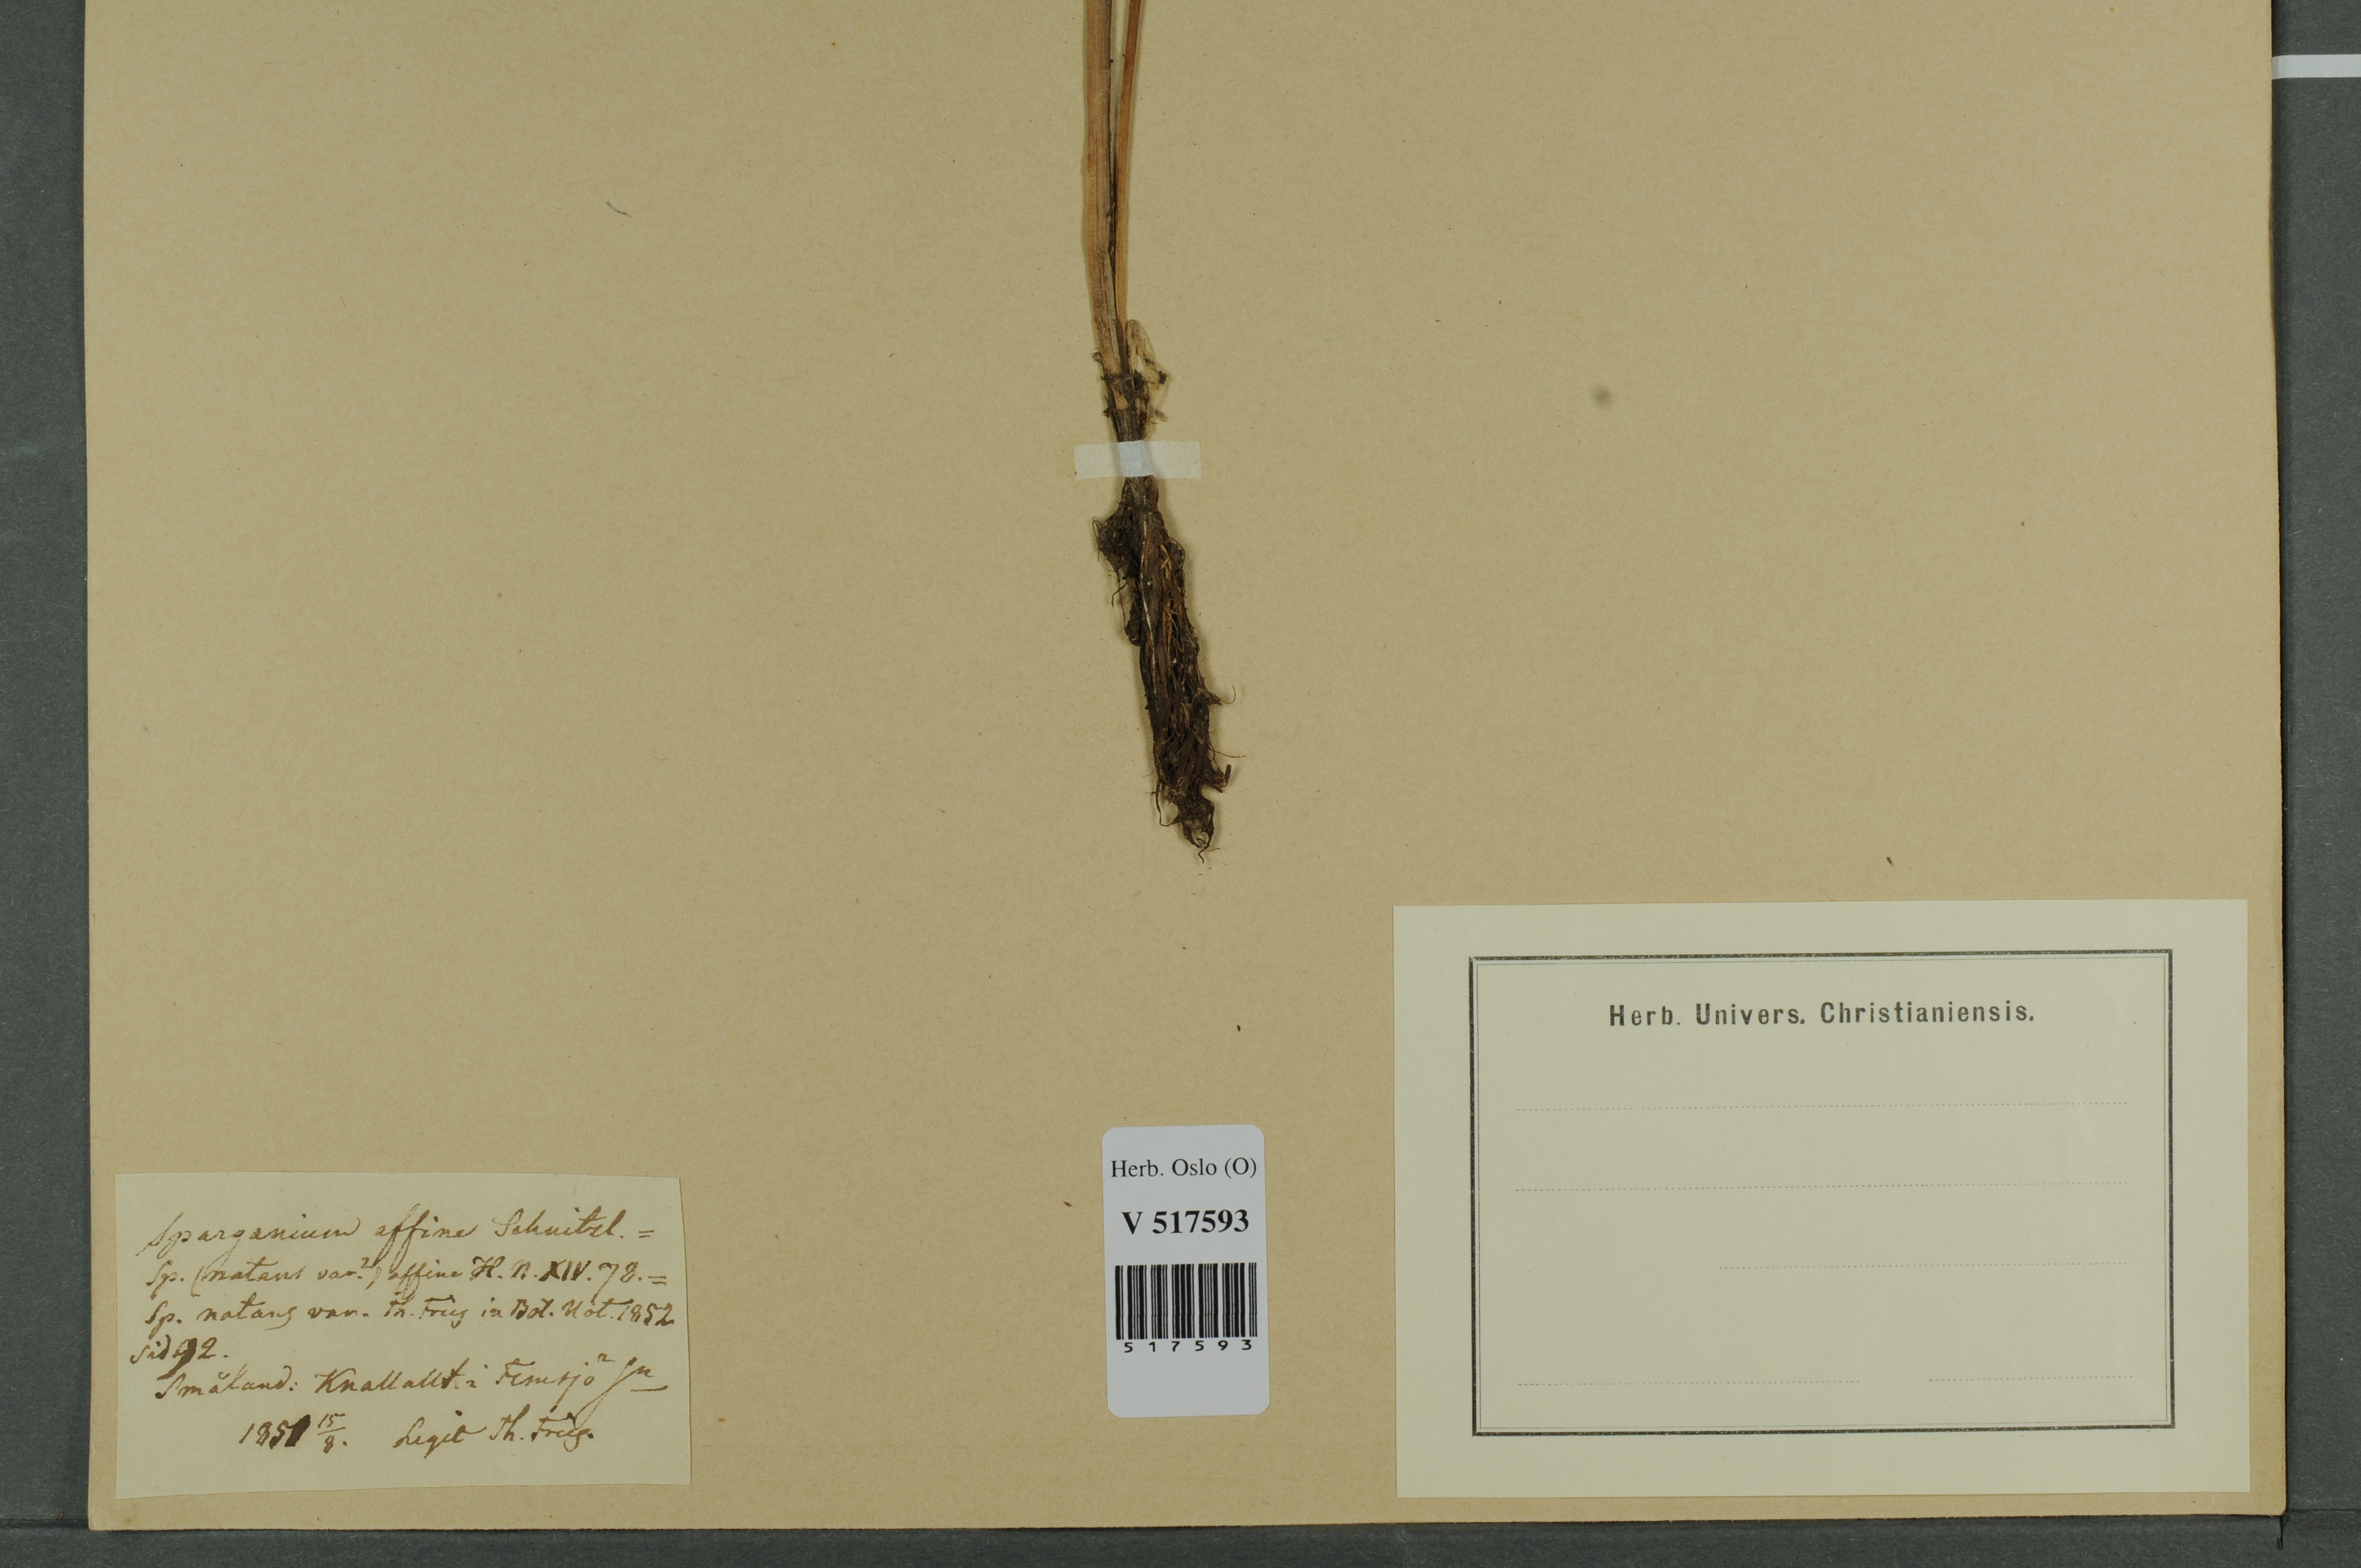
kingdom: Plantae
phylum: Tracheophyta
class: Liliopsida
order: Poales
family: Typhaceae
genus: Sparganium
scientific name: Sparganium angustifolium
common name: Floating bur-reed
